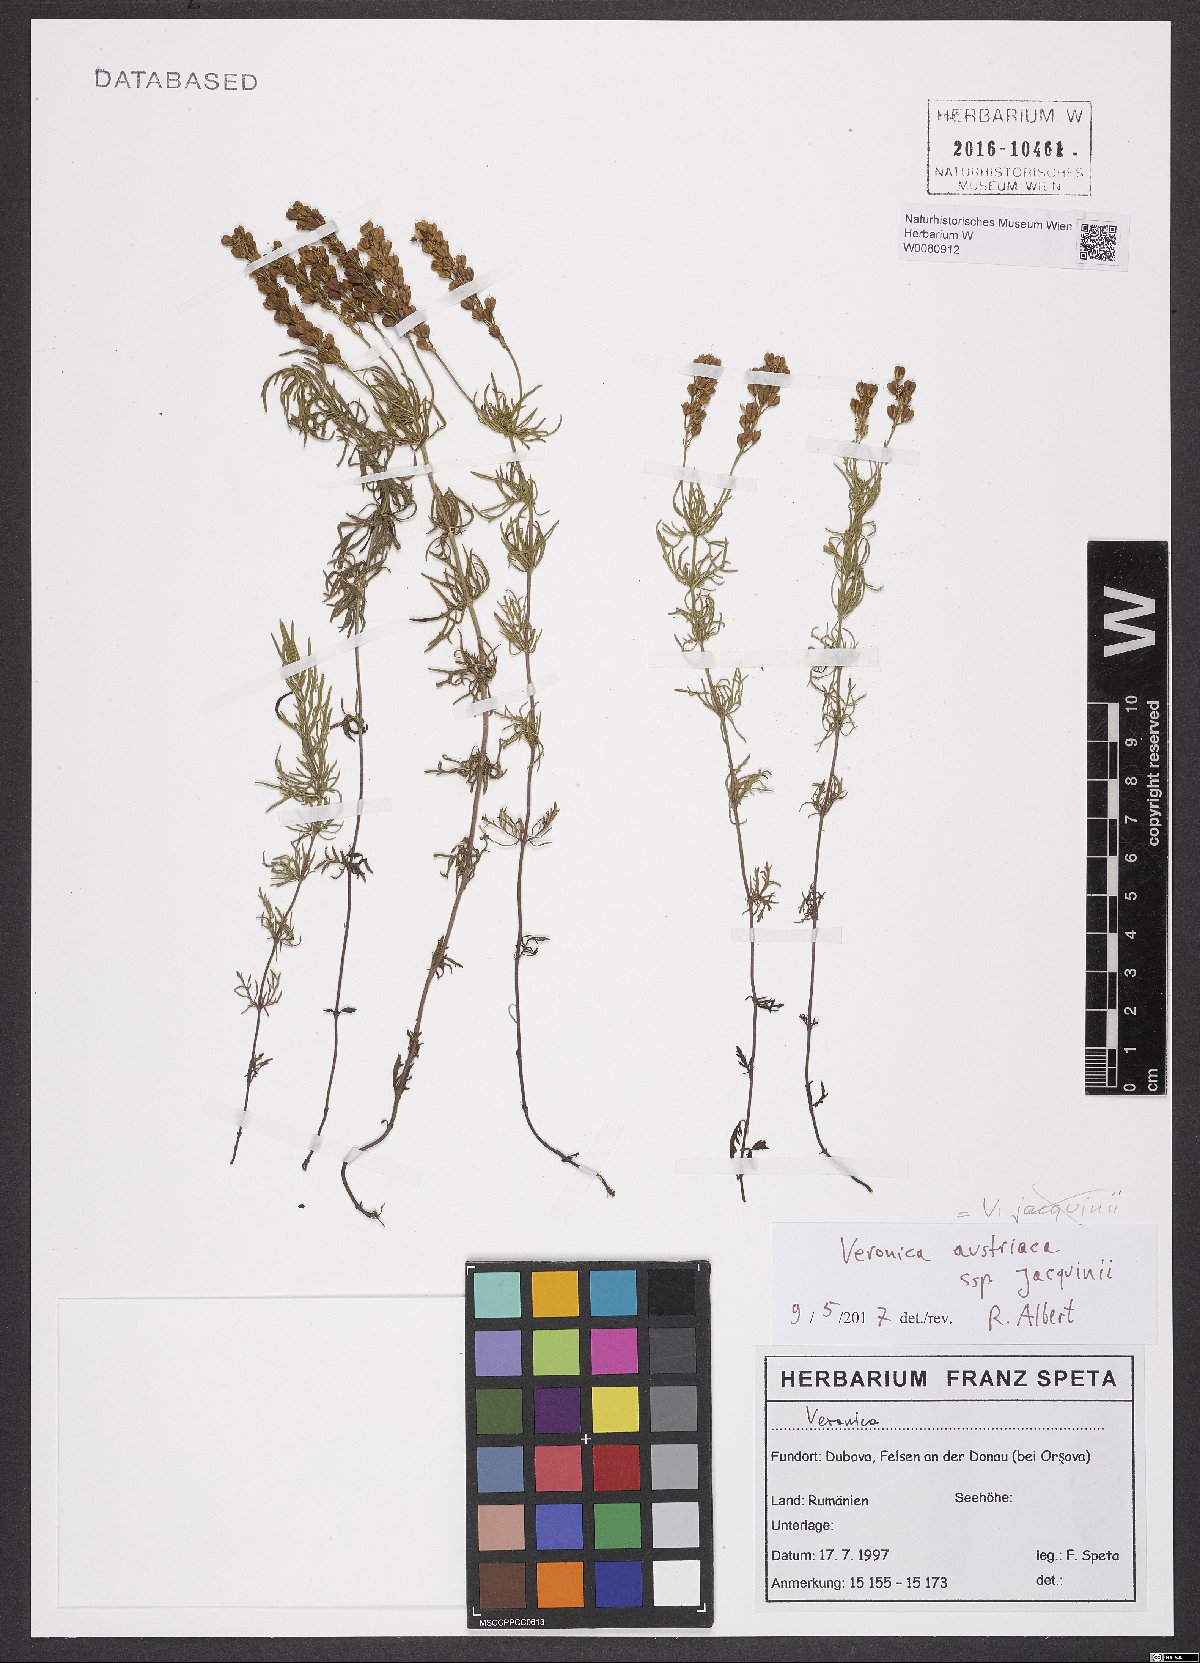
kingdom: Plantae
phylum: Tracheophyta
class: Magnoliopsida
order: Lamiales
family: Plantaginaceae
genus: Veronica
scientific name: Veronica austriaca
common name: Large speedwell
